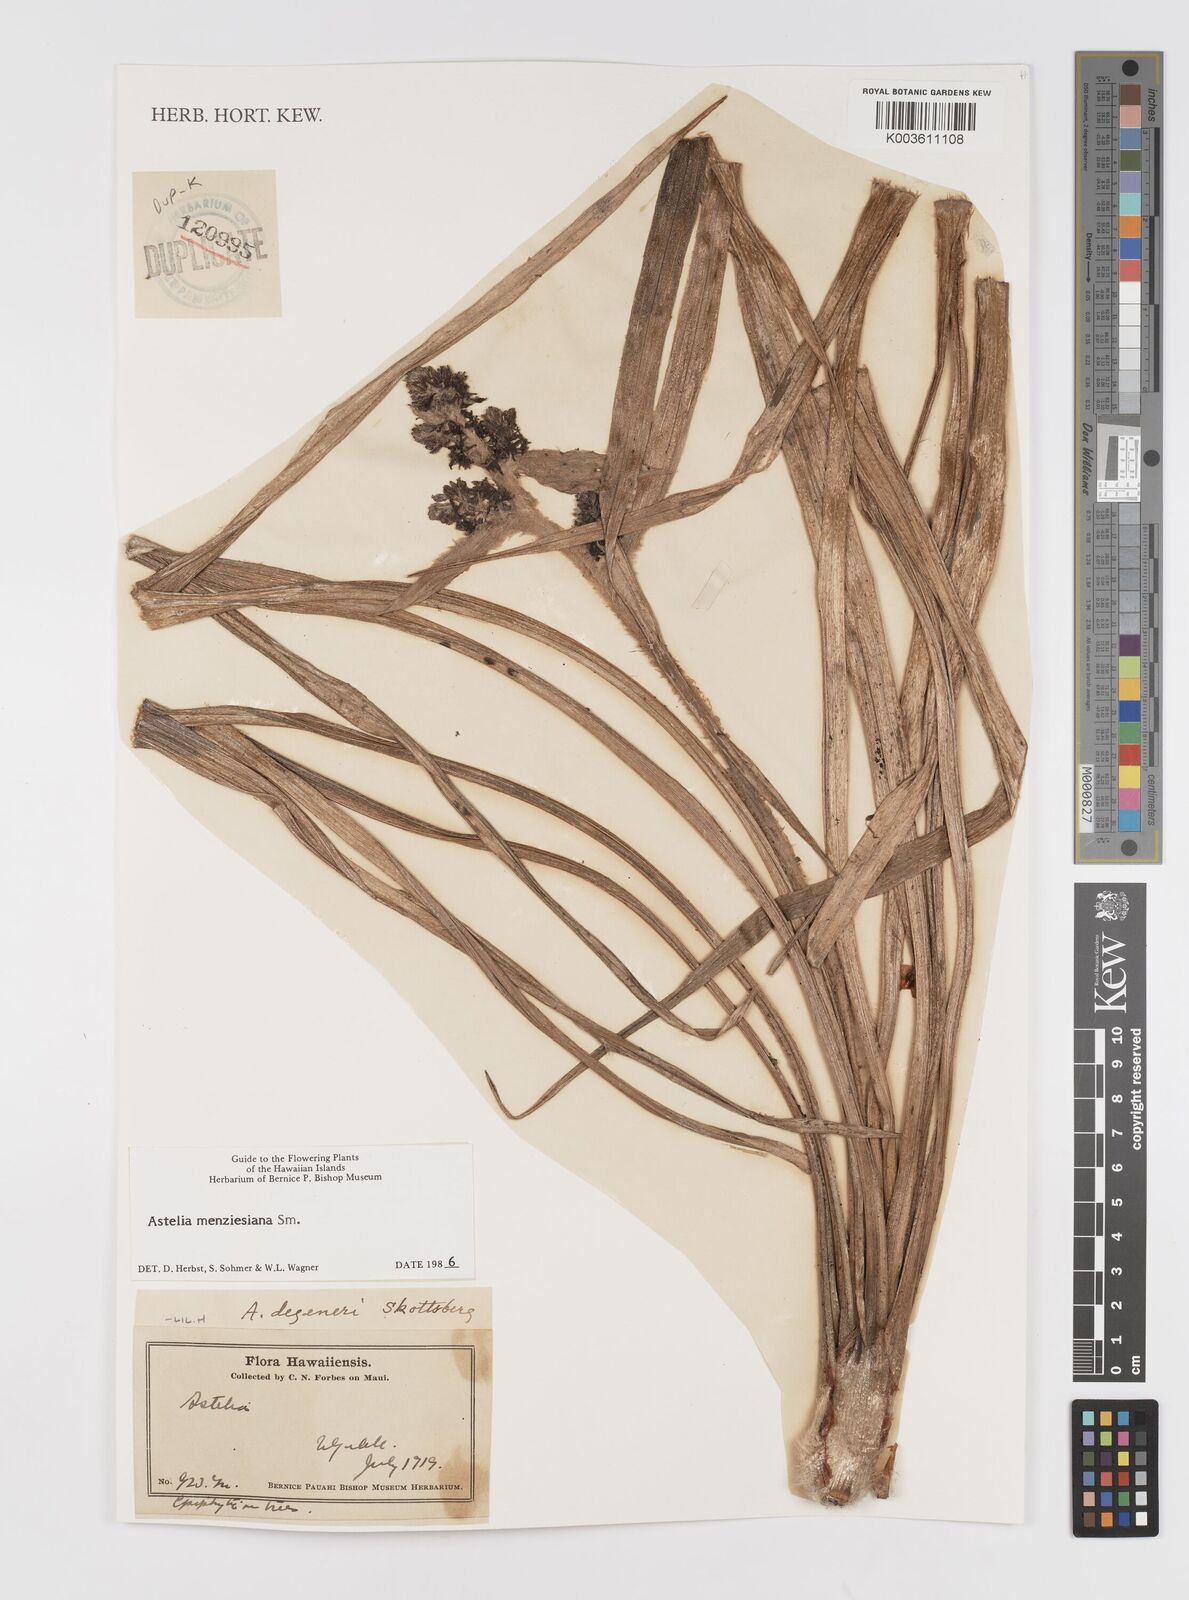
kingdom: Plantae
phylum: Tracheophyta
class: Liliopsida
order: Asparagales
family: Asteliaceae
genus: Astelia
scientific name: Astelia menziesiana
